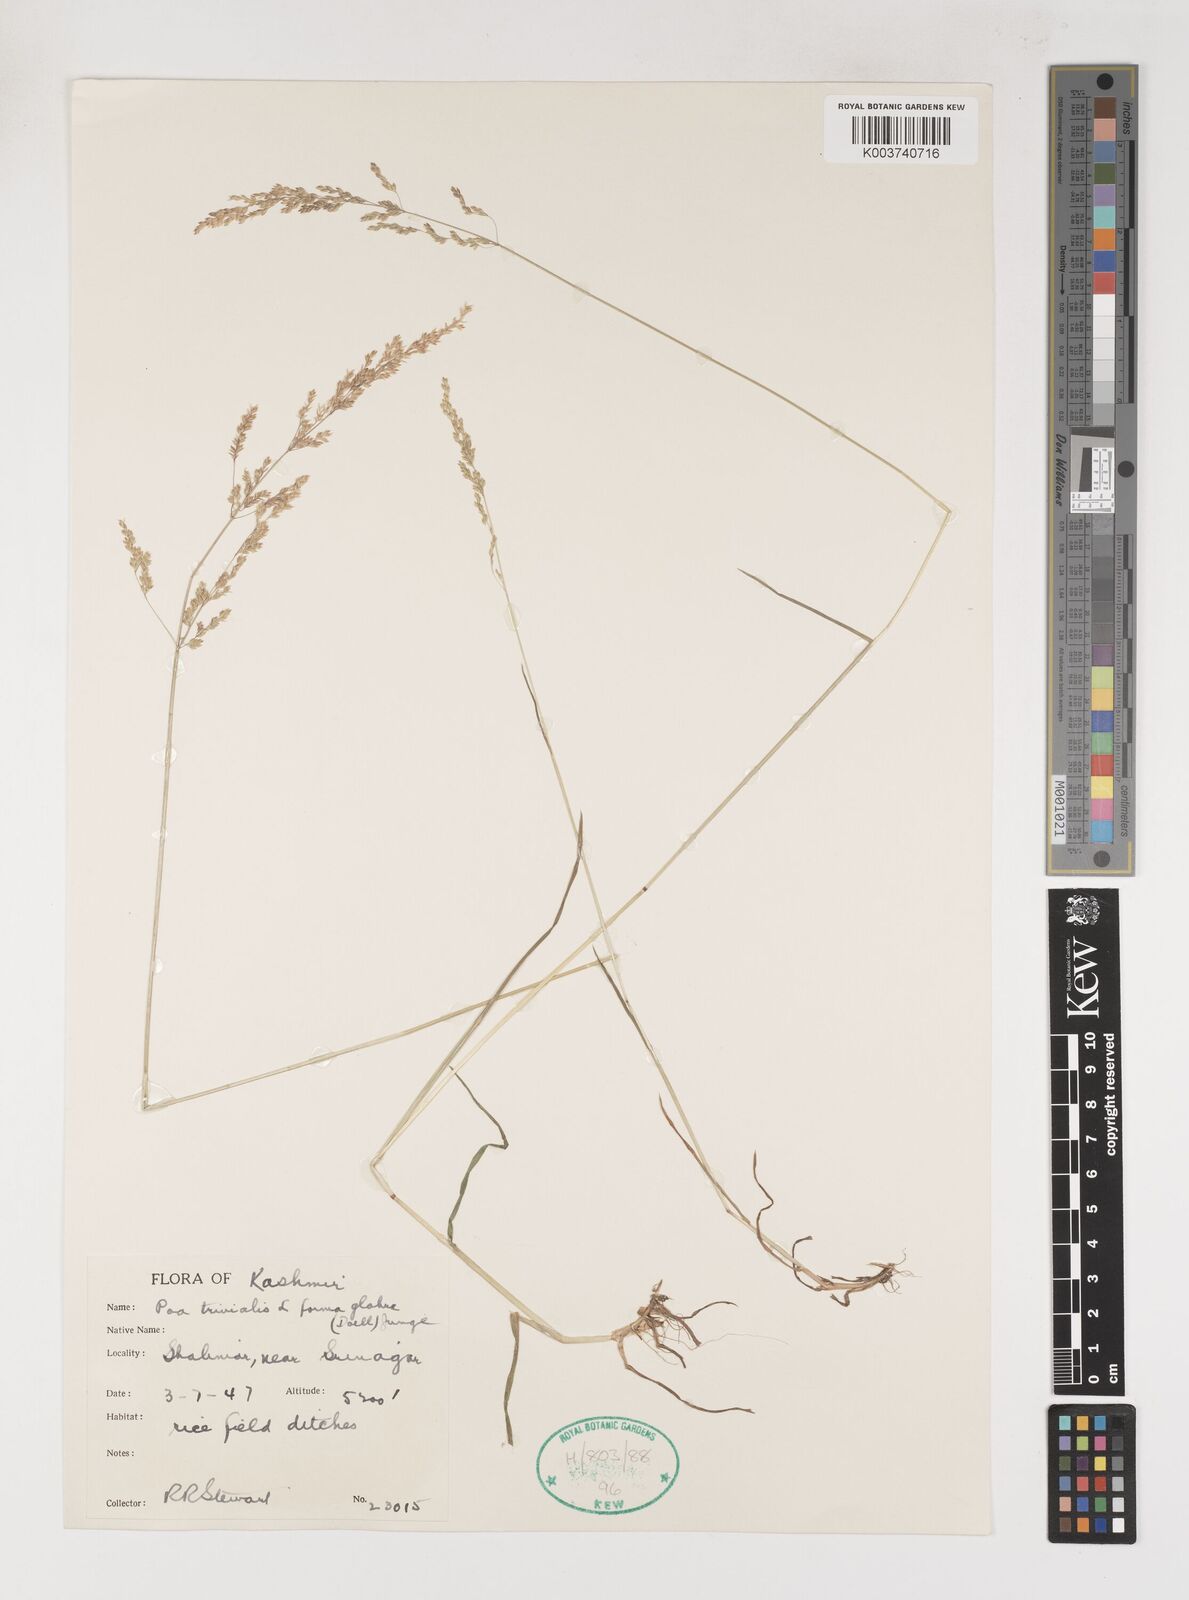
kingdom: Plantae
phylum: Tracheophyta
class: Liliopsida
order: Poales
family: Poaceae
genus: Poa
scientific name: Poa trivialis
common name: Rough bluegrass
